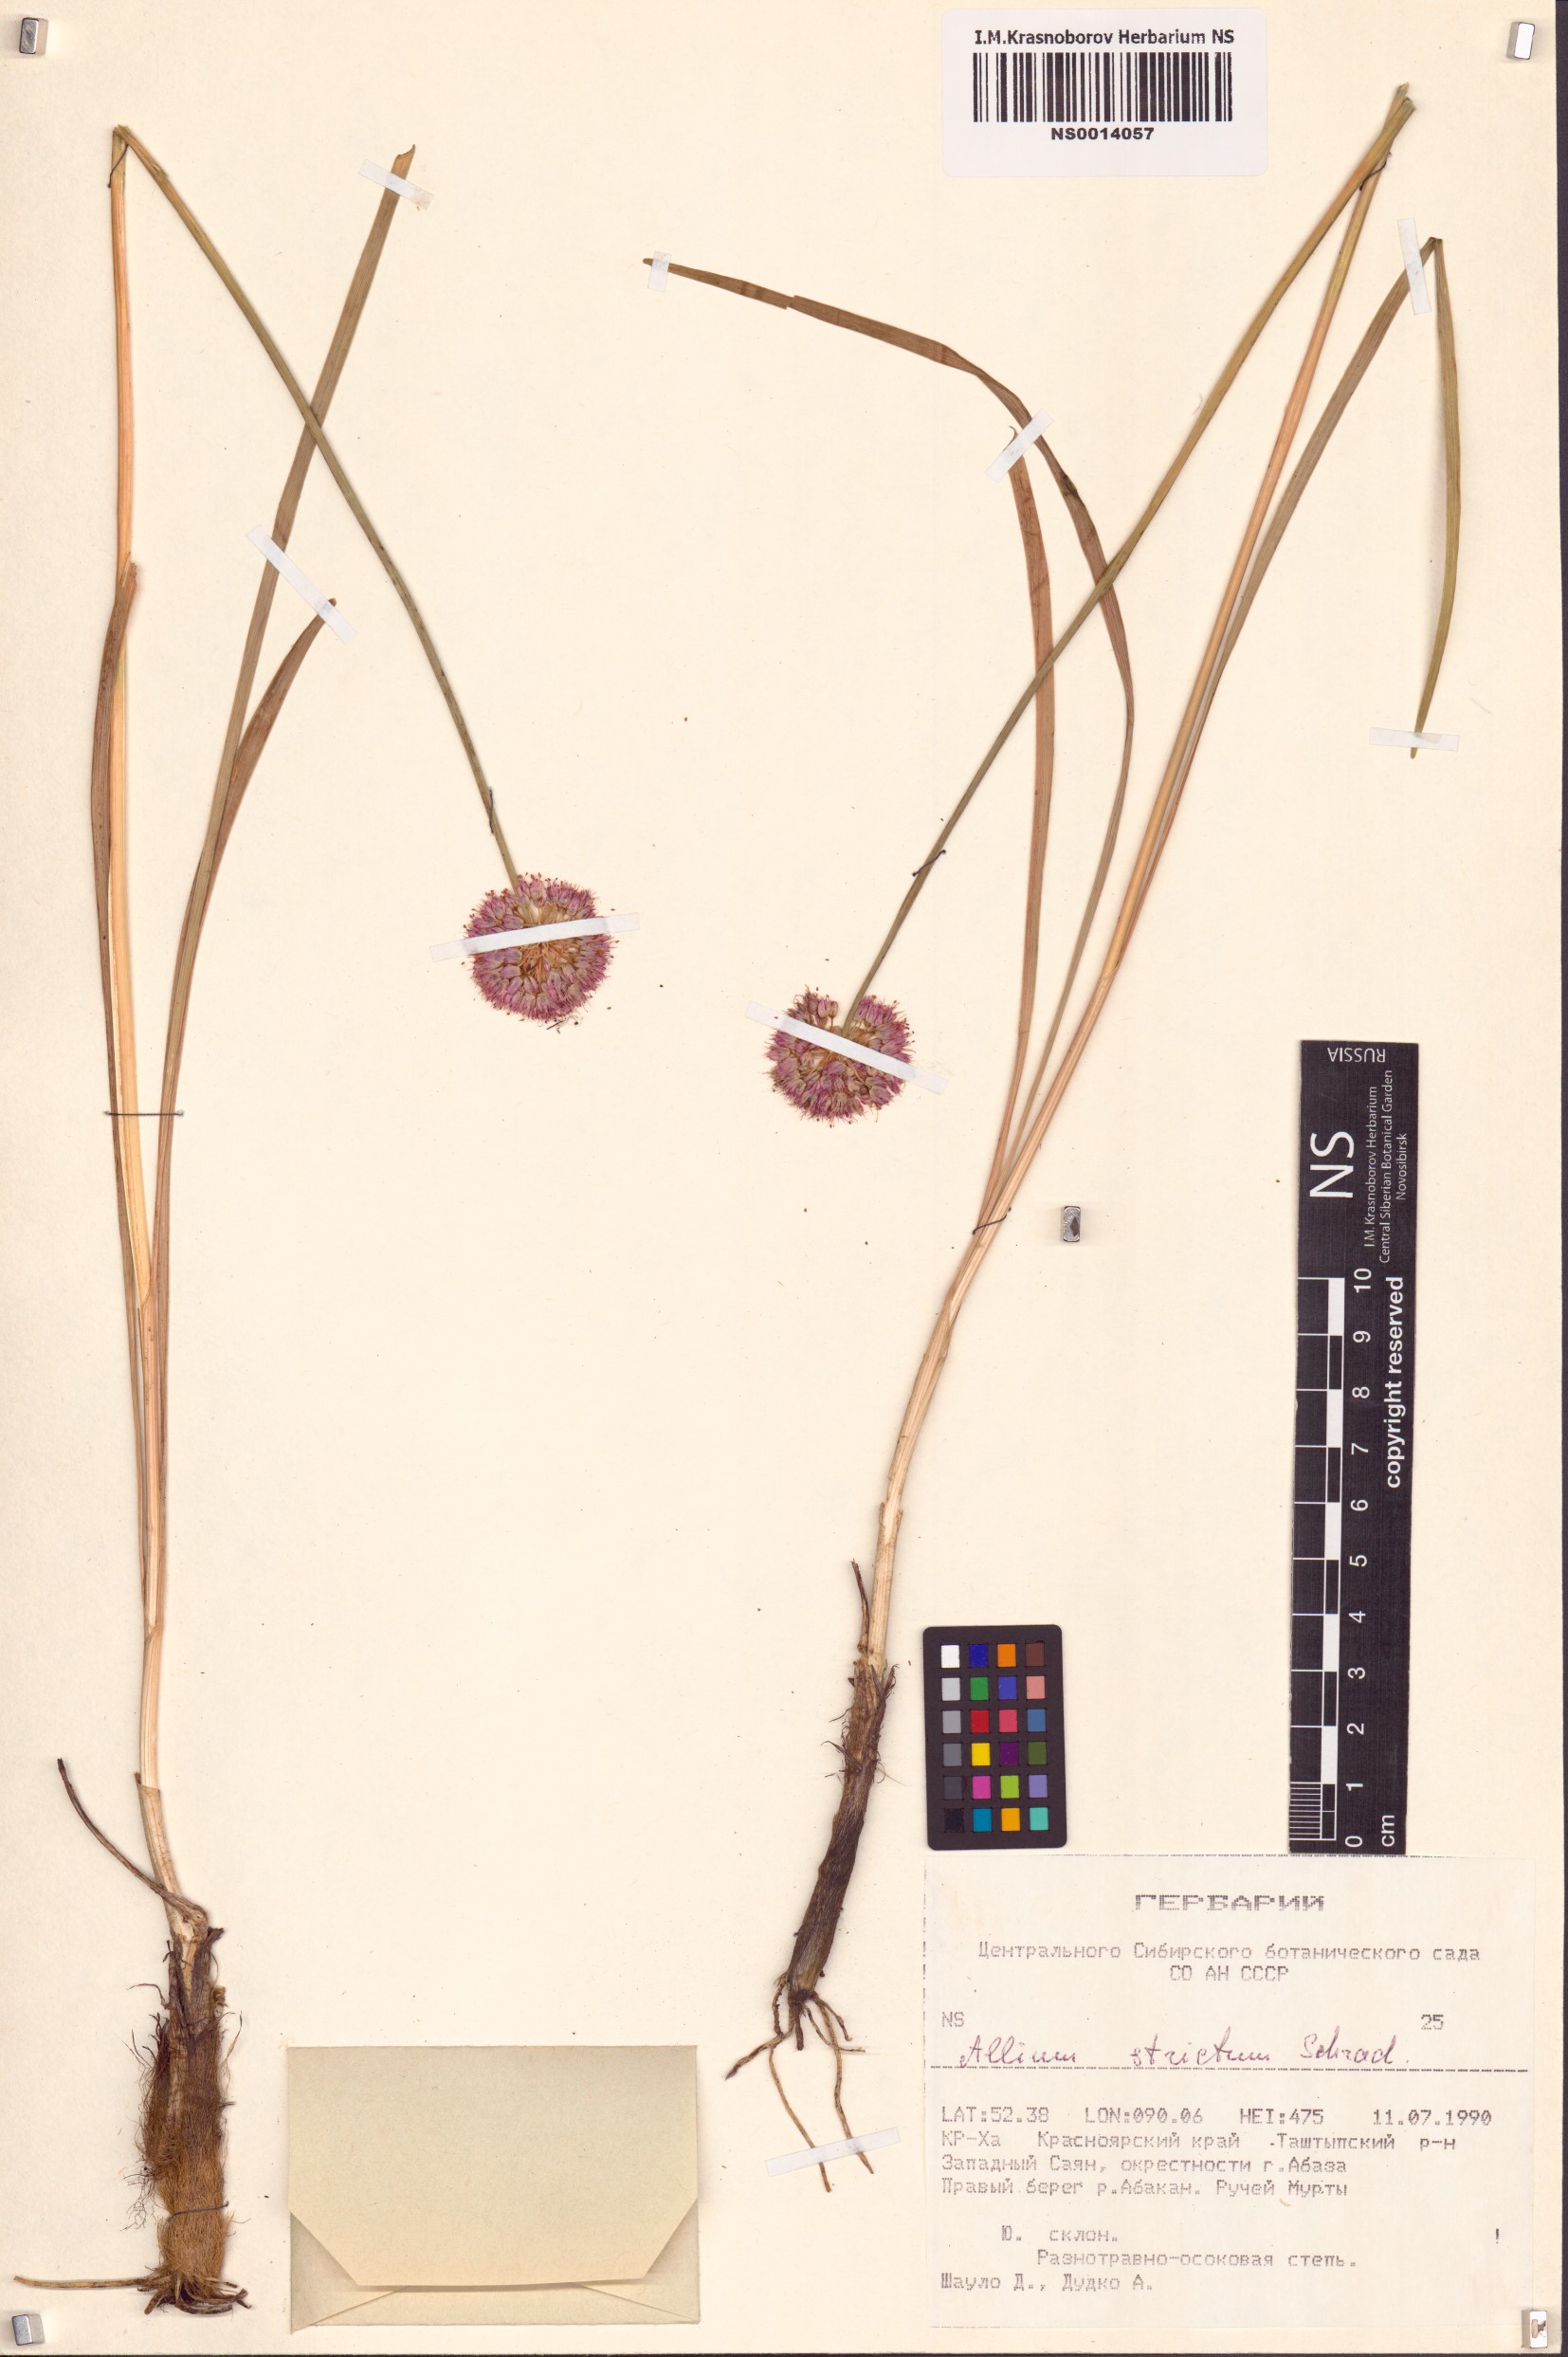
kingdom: Plantae
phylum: Tracheophyta
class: Liliopsida
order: Asparagales
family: Amaryllidaceae
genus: Allium
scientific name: Allium strictum
